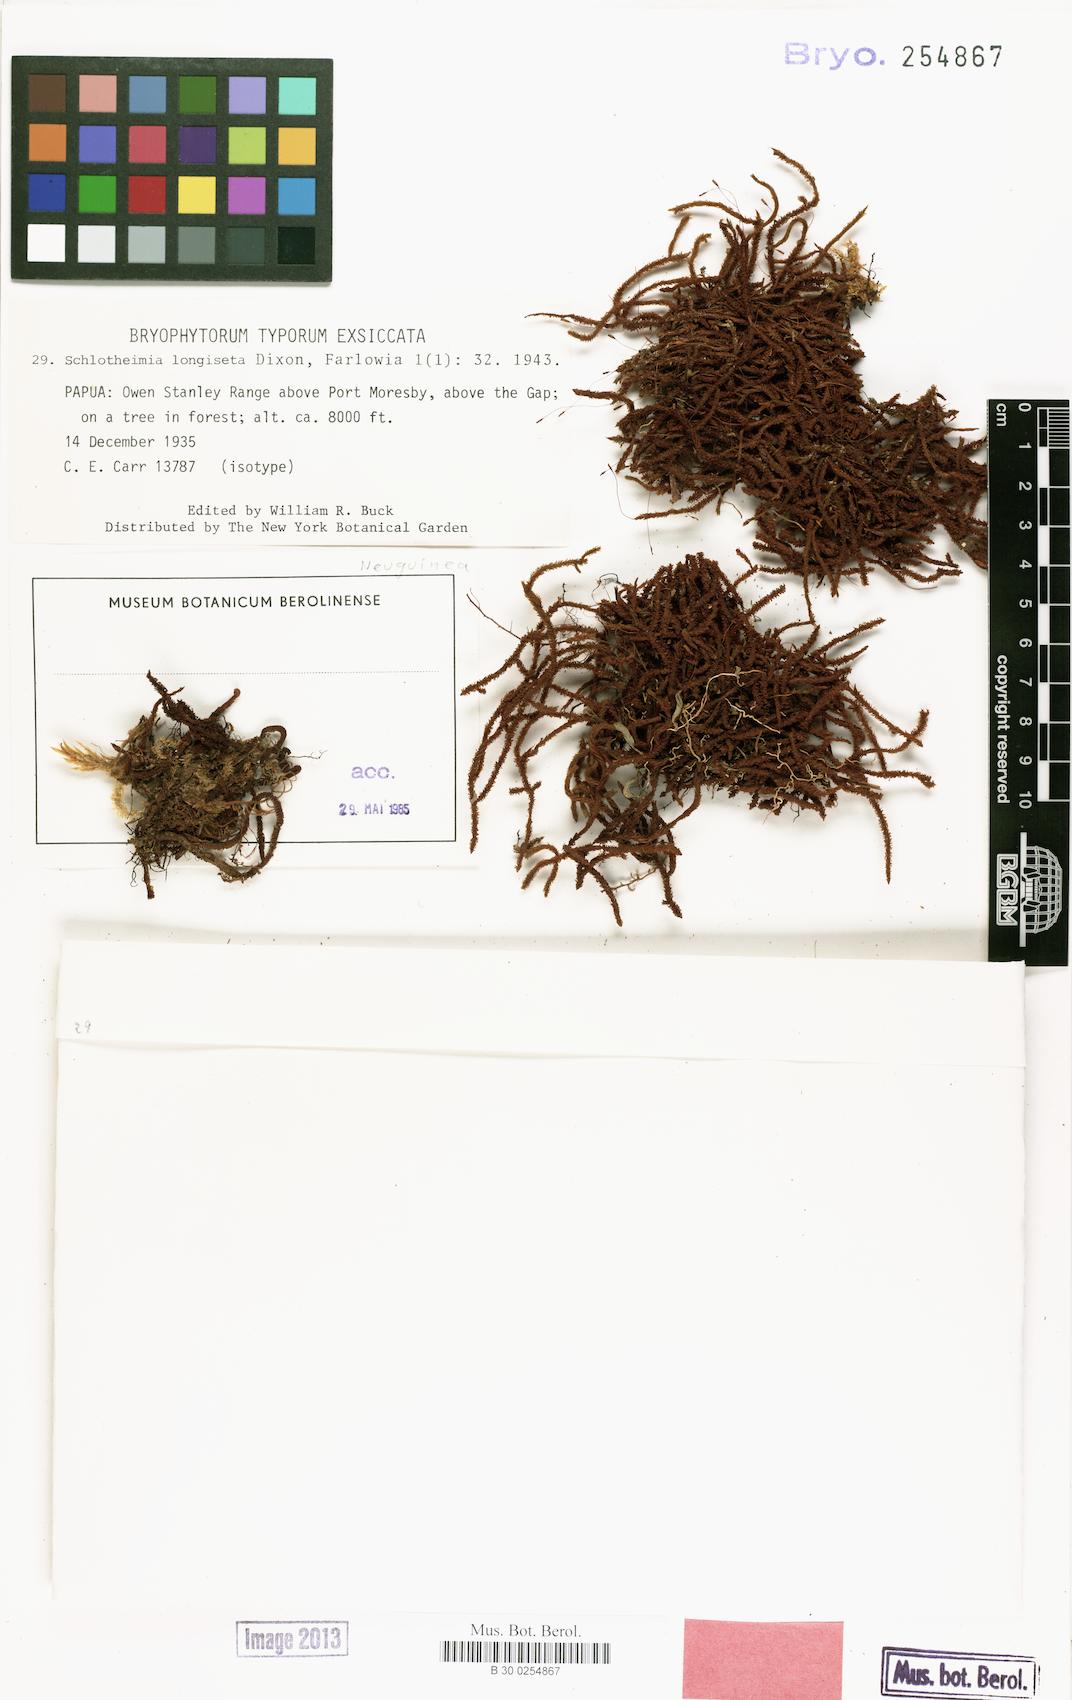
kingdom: Plantae
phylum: Bryophyta
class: Bryopsida
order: Orthotrichales
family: Orthotrichaceae
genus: Schlotheimia
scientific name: Schlotheimia macgregorii
